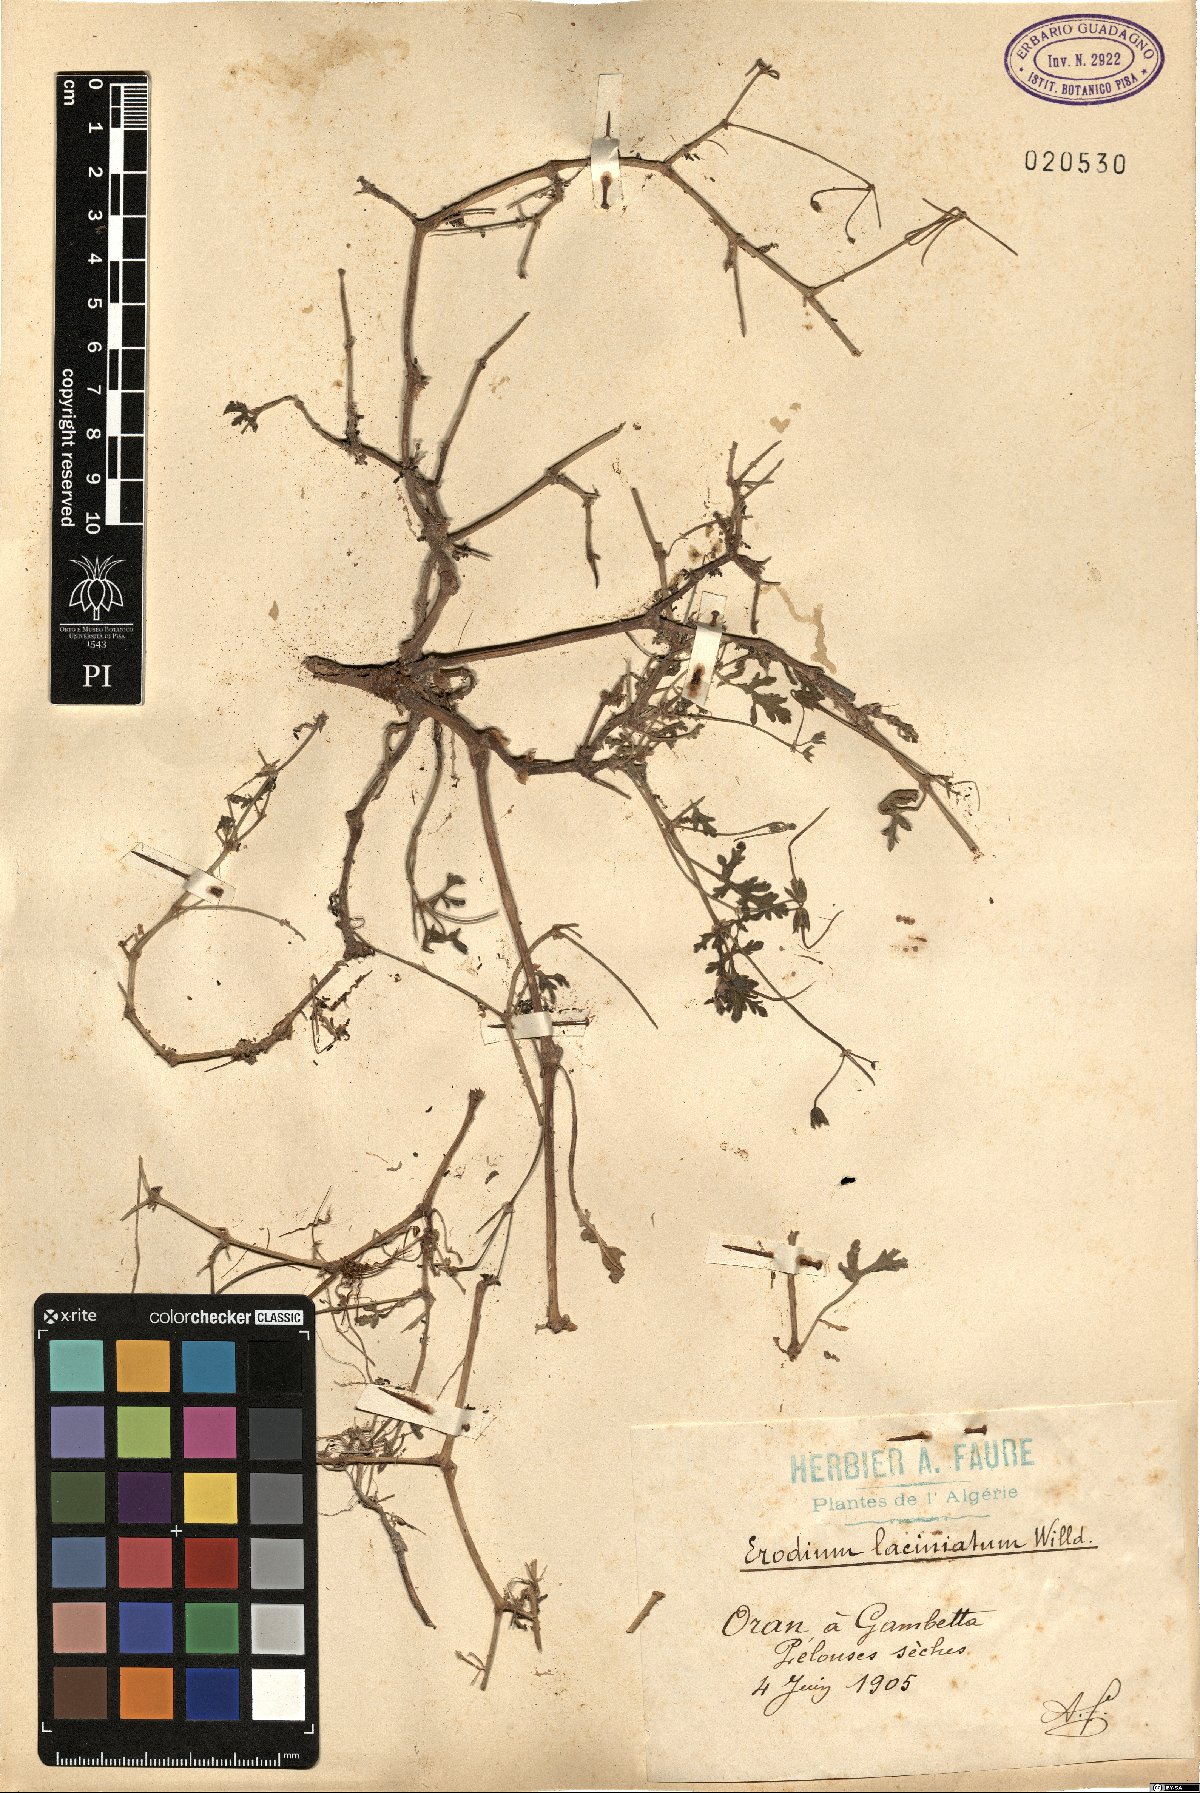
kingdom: Plantae
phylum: Tracheophyta
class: Magnoliopsida
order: Geraniales
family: Geraniaceae
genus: Erodium
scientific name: Erodium laciniatum
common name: Cutleaf stork's bill
